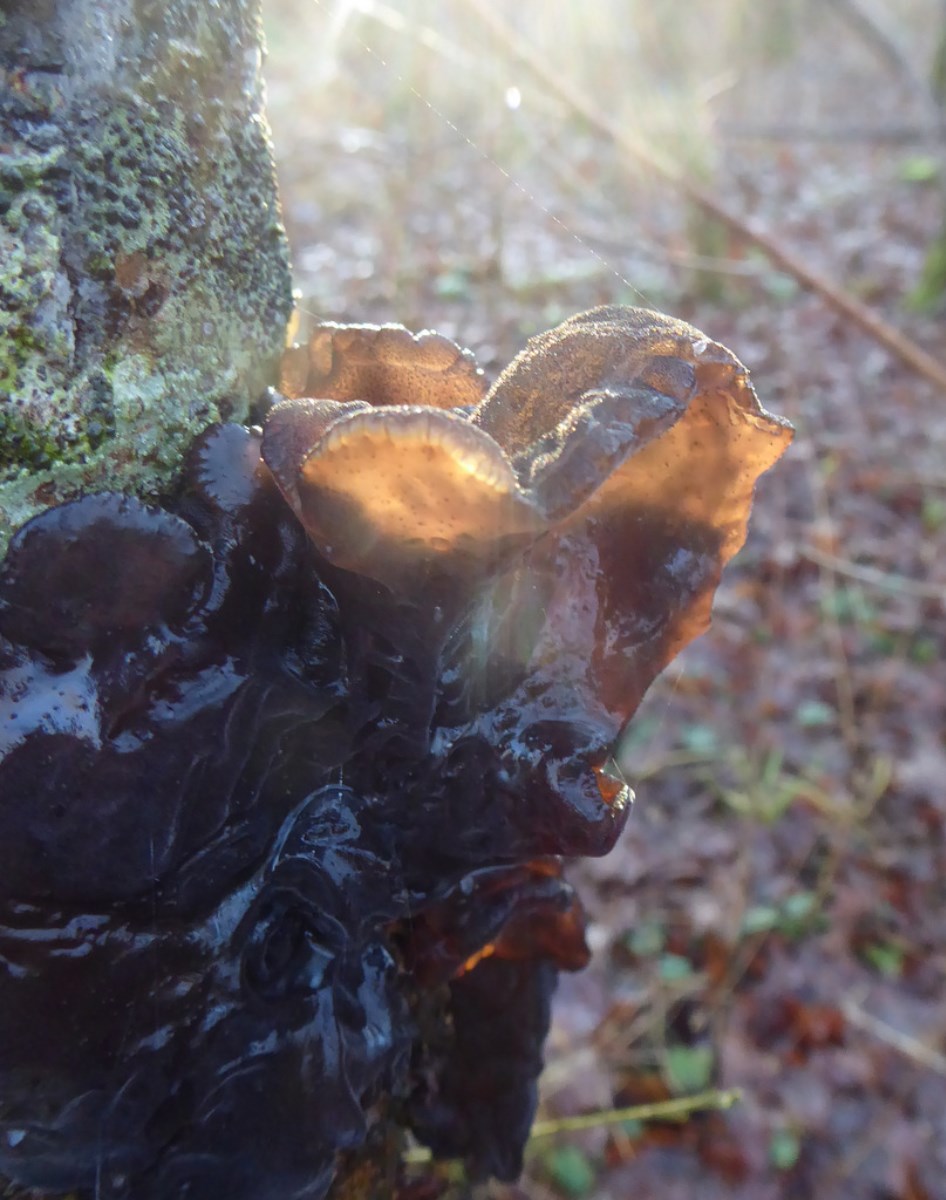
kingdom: Fungi
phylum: Basidiomycota
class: Agaricomycetes
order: Auriculariales
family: Auriculariaceae
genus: Exidia
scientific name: Exidia glandulosa
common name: ege-bævretop
